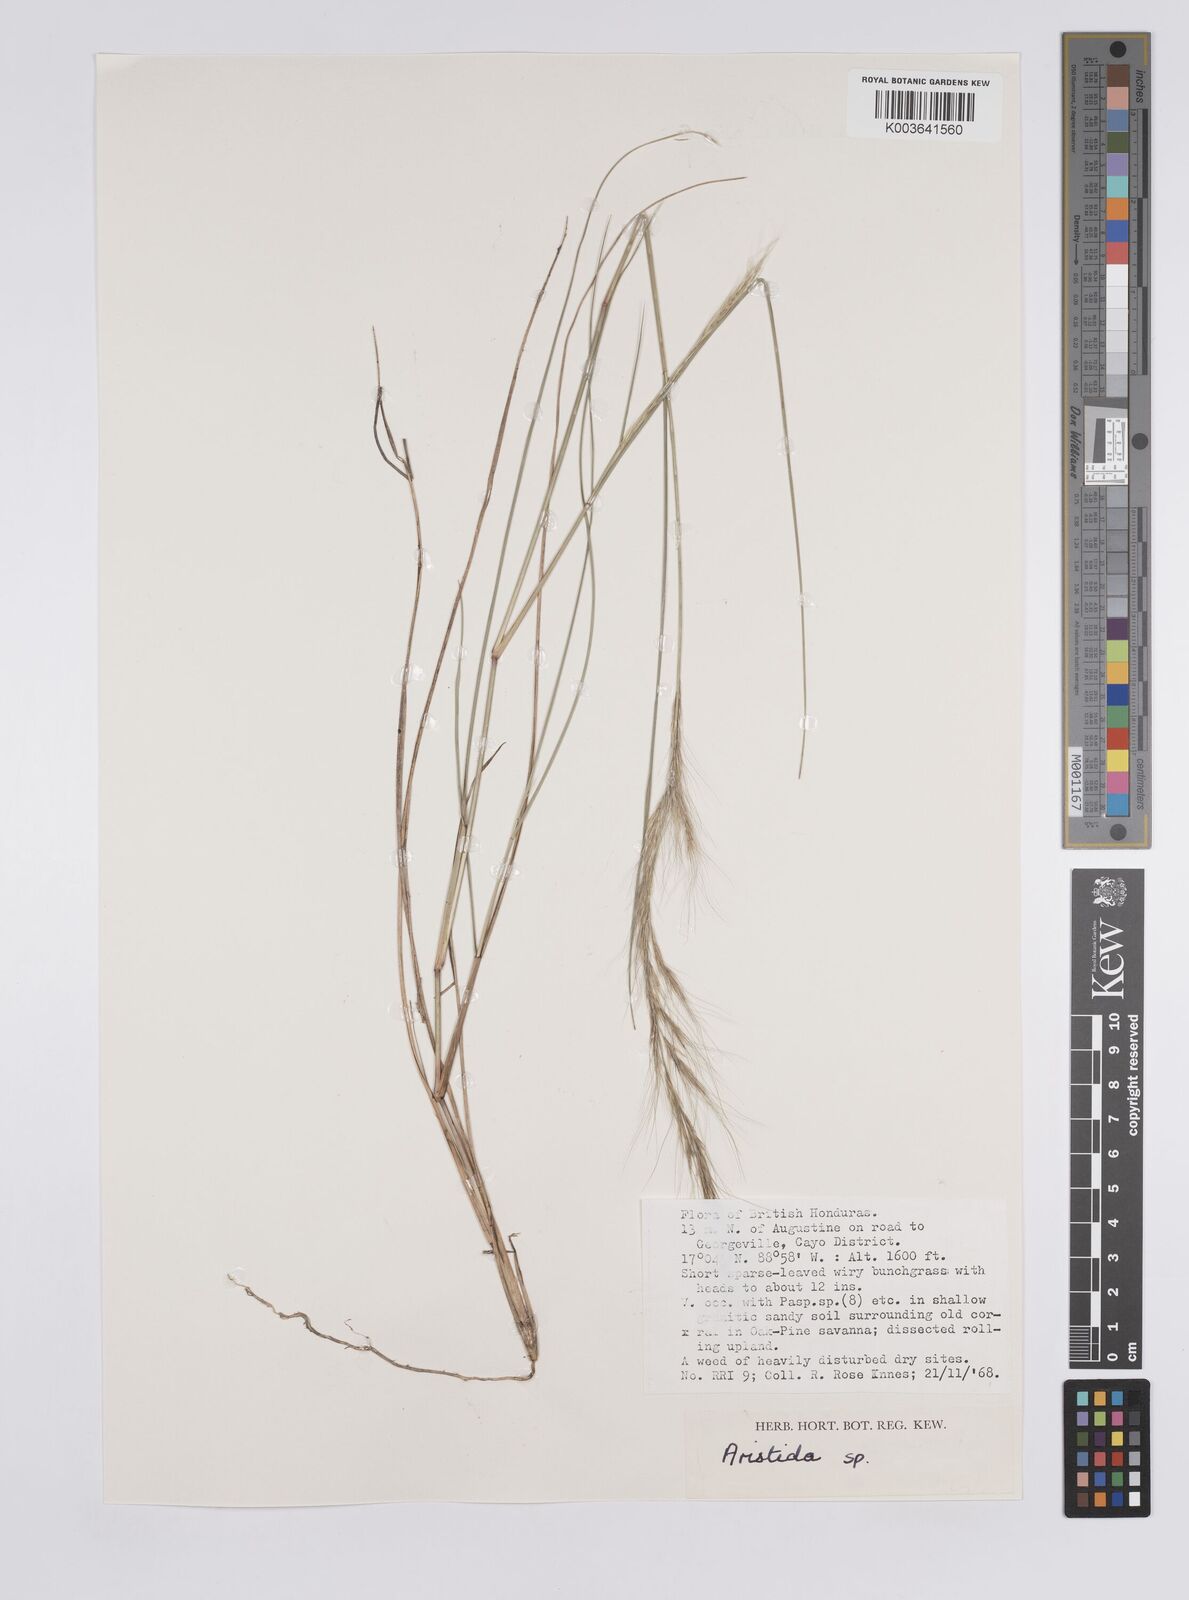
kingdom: Plantae
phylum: Tracheophyta
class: Liliopsida
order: Poales
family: Poaceae
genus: Aristida
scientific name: Aristida
